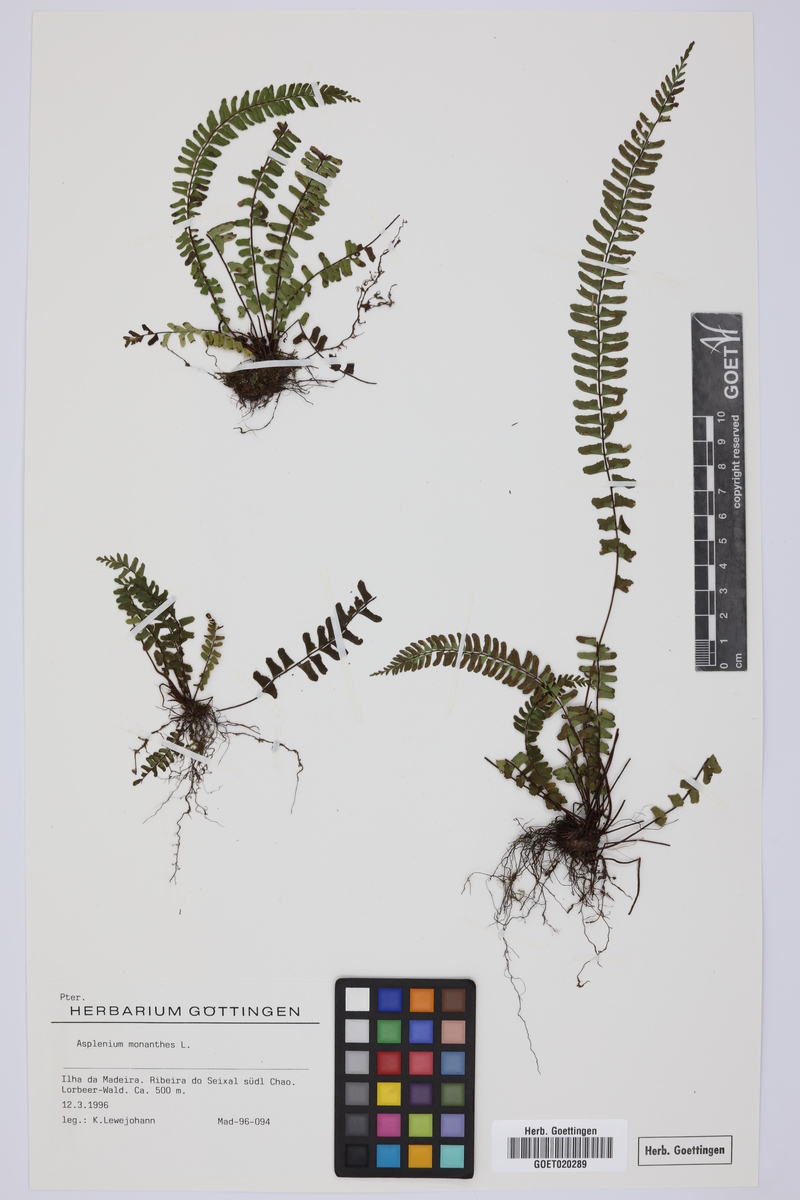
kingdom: Plantae
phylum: Tracheophyta
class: Polypodiopsida
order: Polypodiales
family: Aspleniaceae
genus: Asplenium
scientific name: Asplenium monanthes
